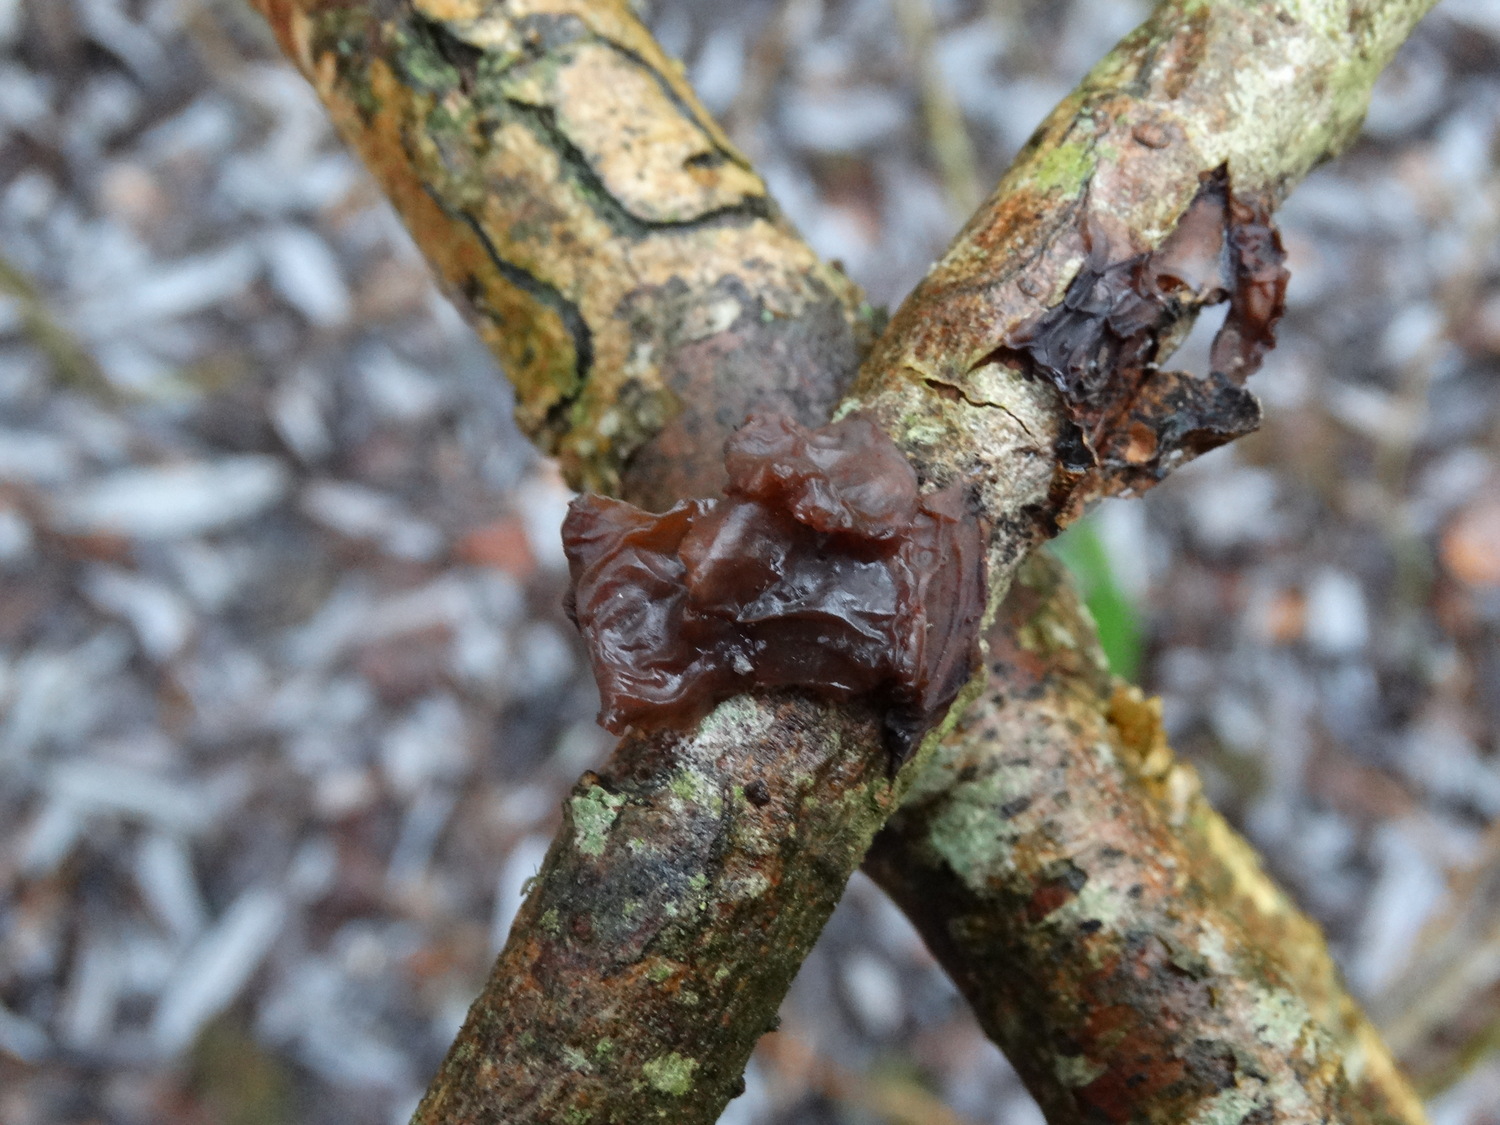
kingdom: Fungi
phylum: Basidiomycota
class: Agaricomycetes
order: Auriculariales
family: Auriculariaceae
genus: Exidia
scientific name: Exidia recisa
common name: pile-bævretop
